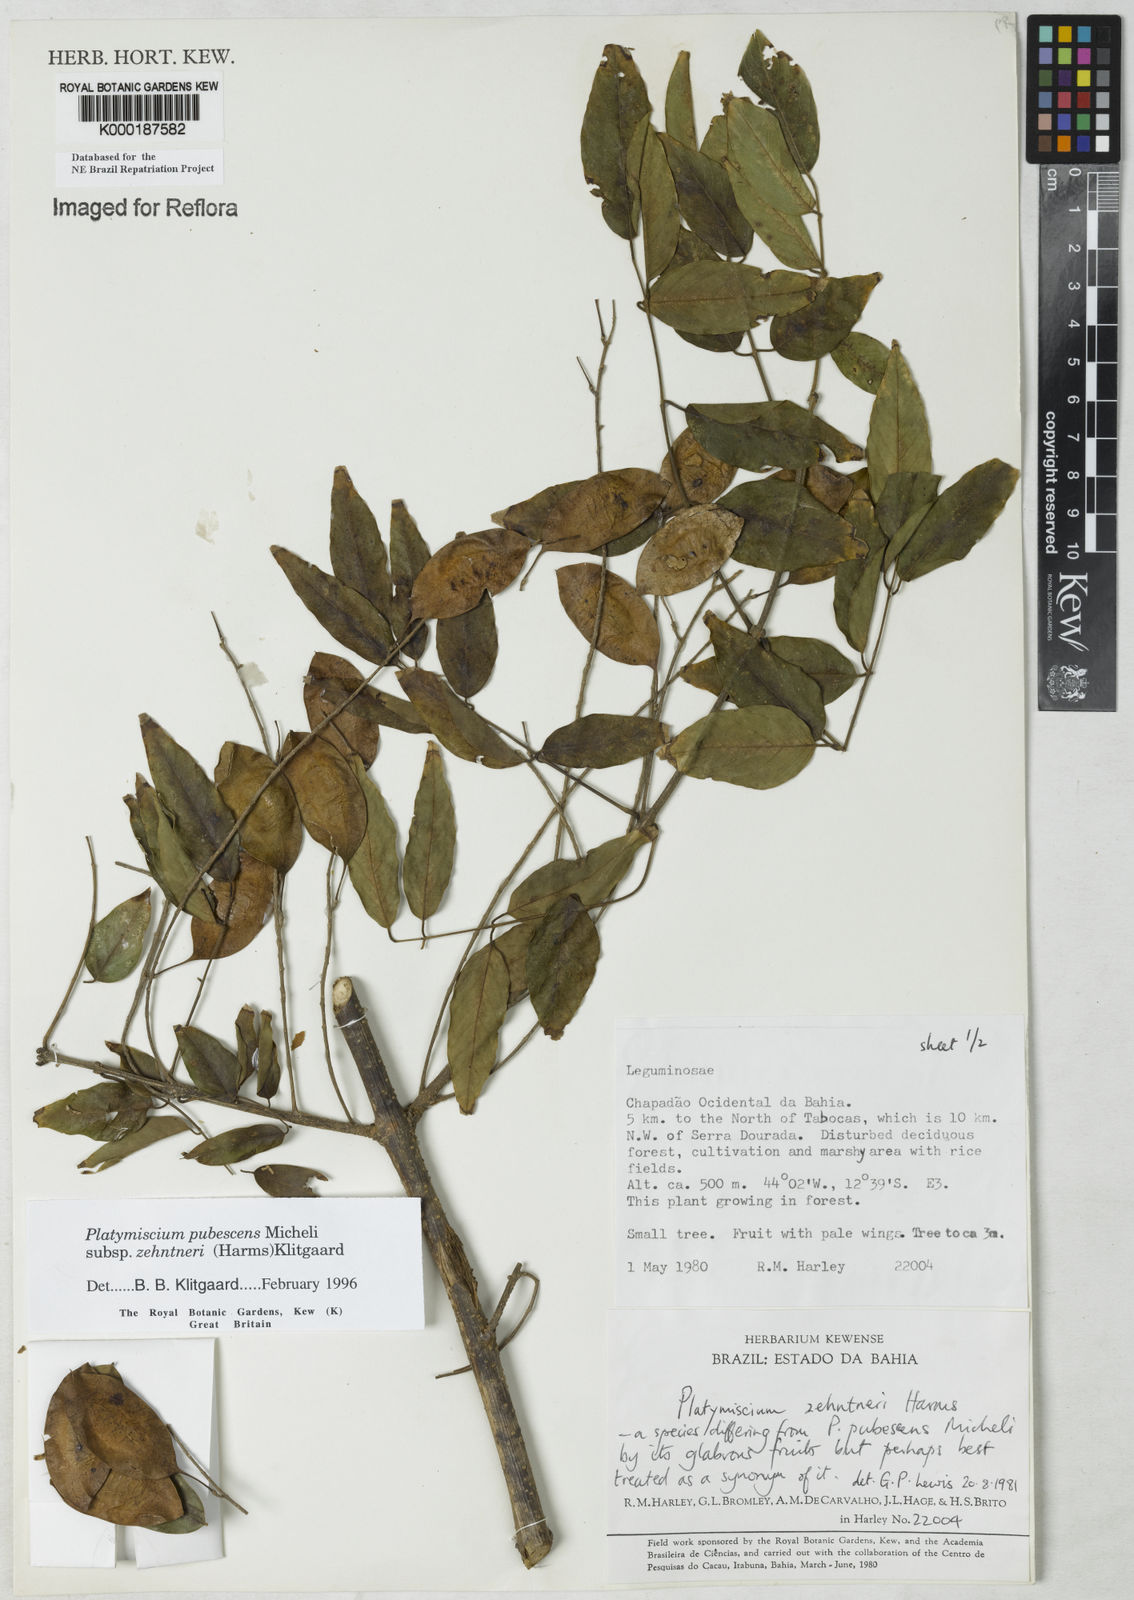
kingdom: Plantae
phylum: Tracheophyta
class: Magnoliopsida
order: Fabales
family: Fabaceae
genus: Platymiscium
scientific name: Platymiscium pubescens
